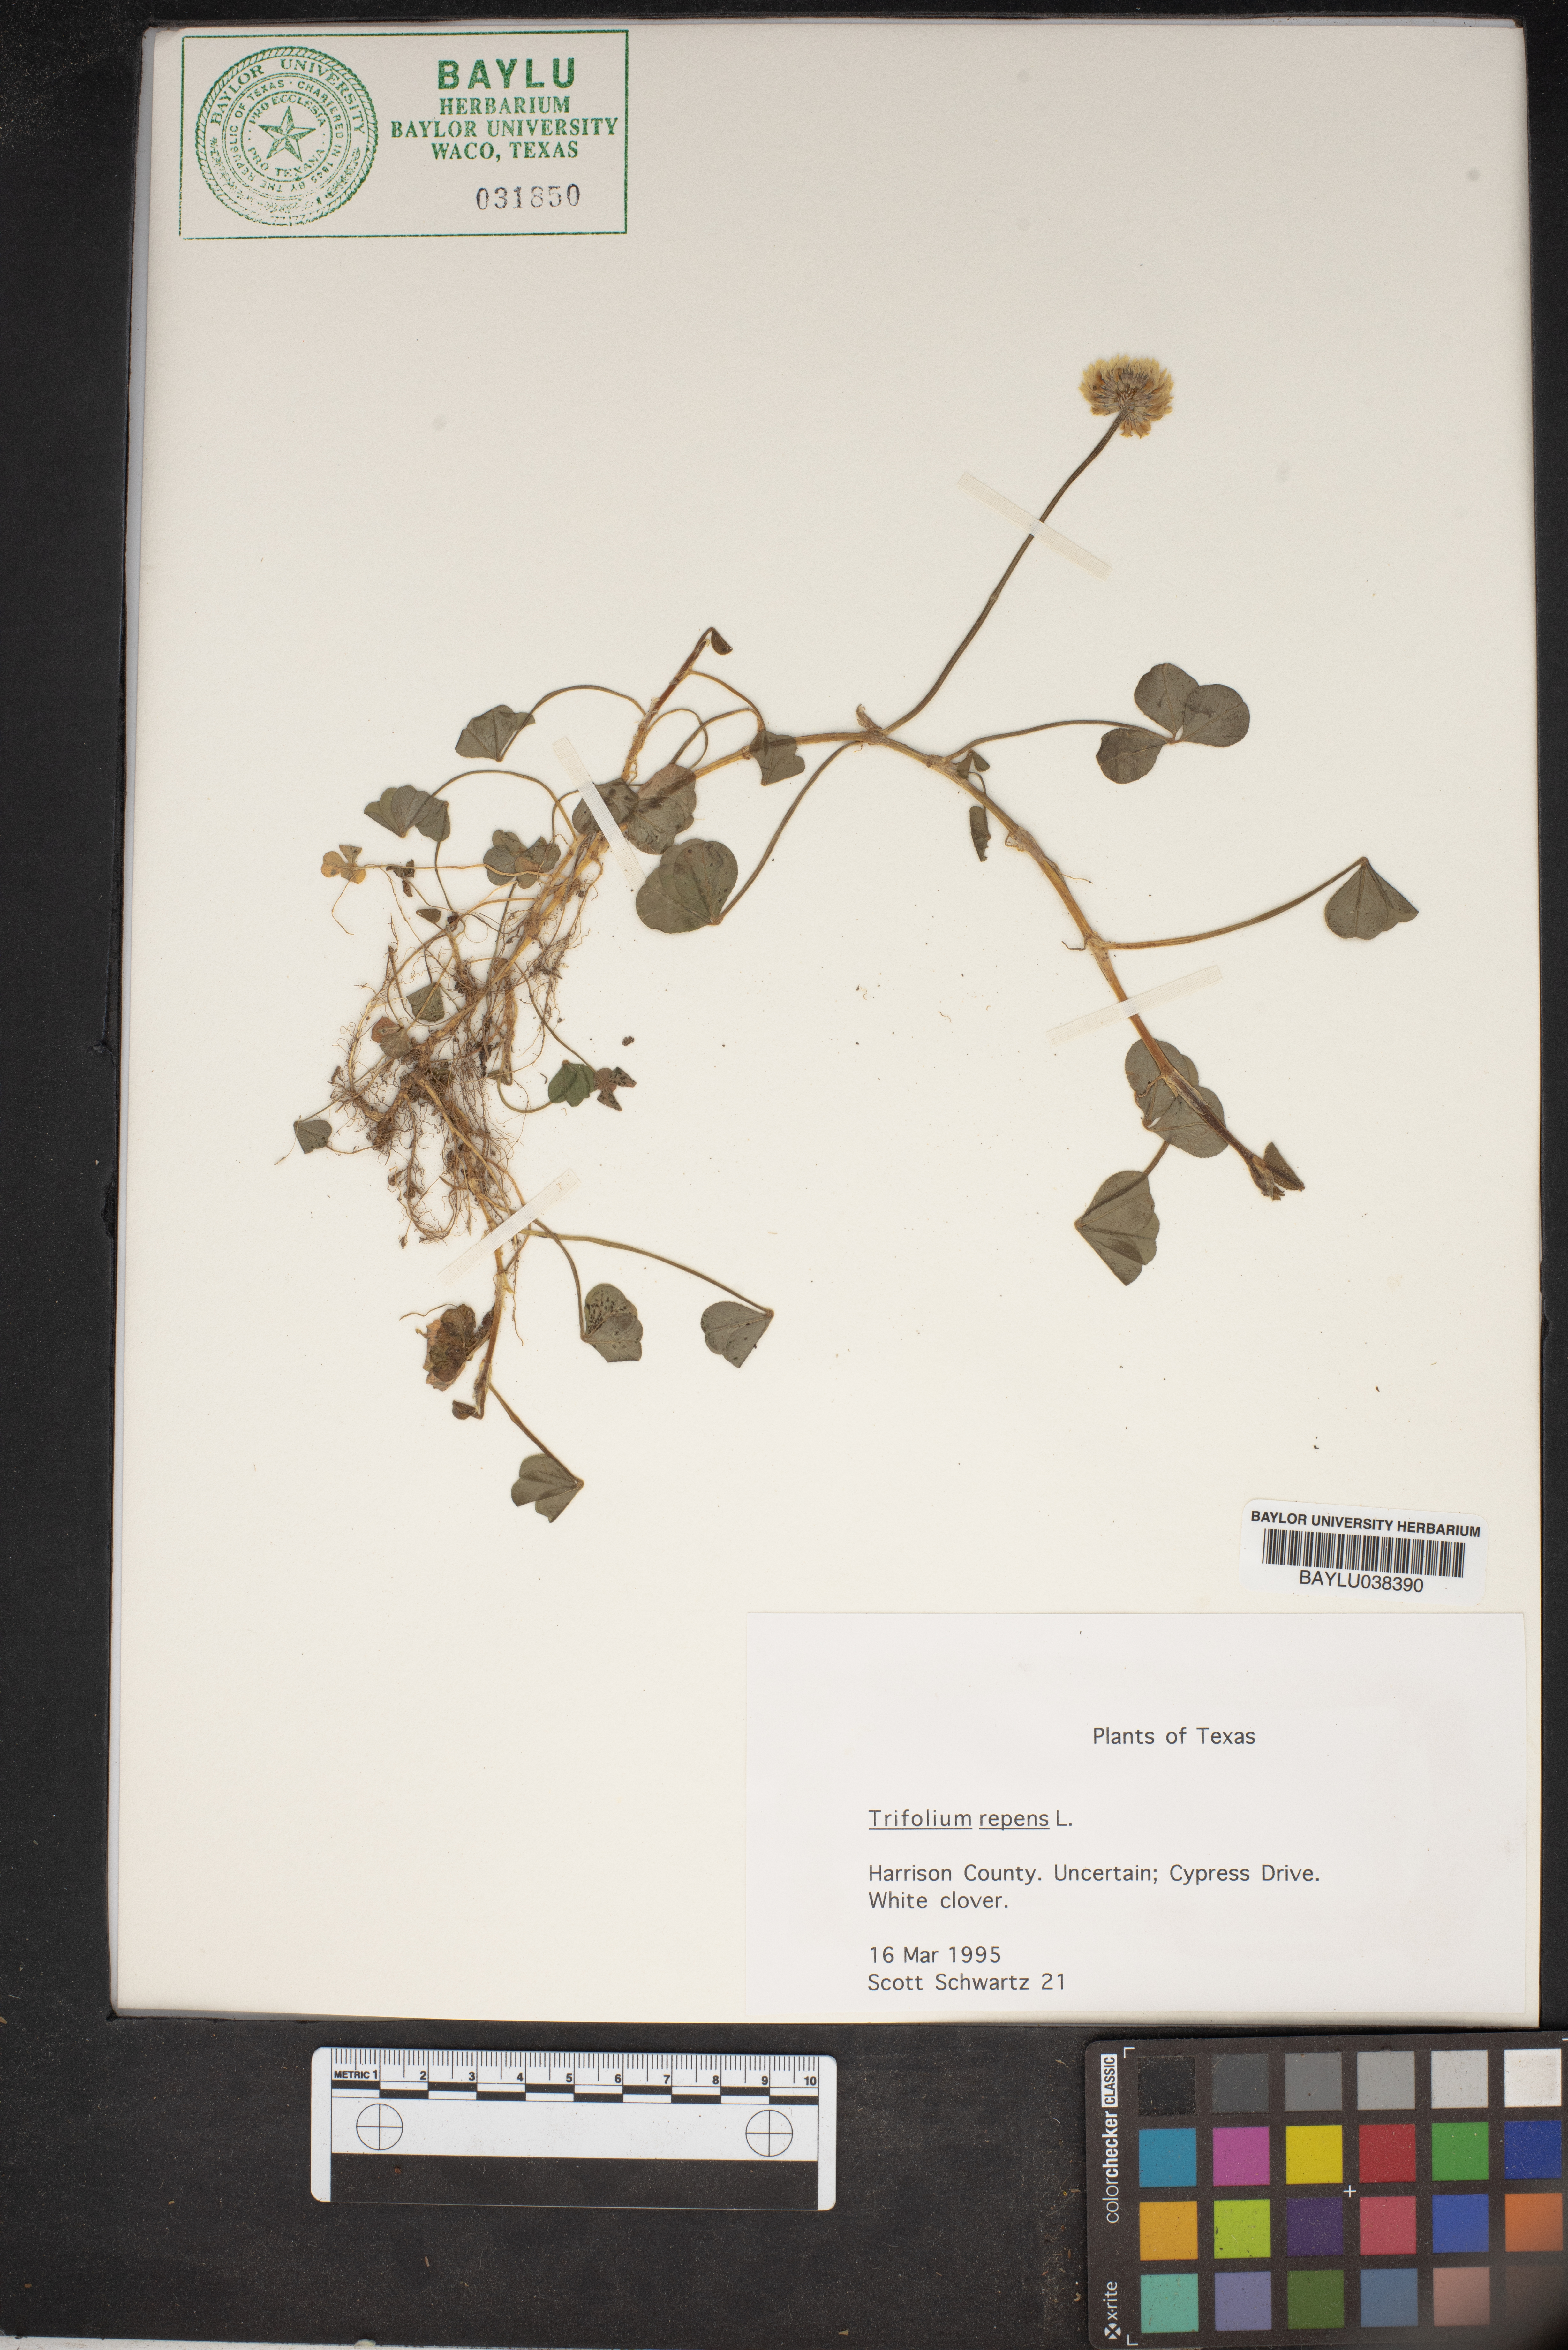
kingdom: Plantae
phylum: Tracheophyta
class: Magnoliopsida
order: Fabales
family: Fabaceae
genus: Trifolium
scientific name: Trifolium repens
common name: White clover
